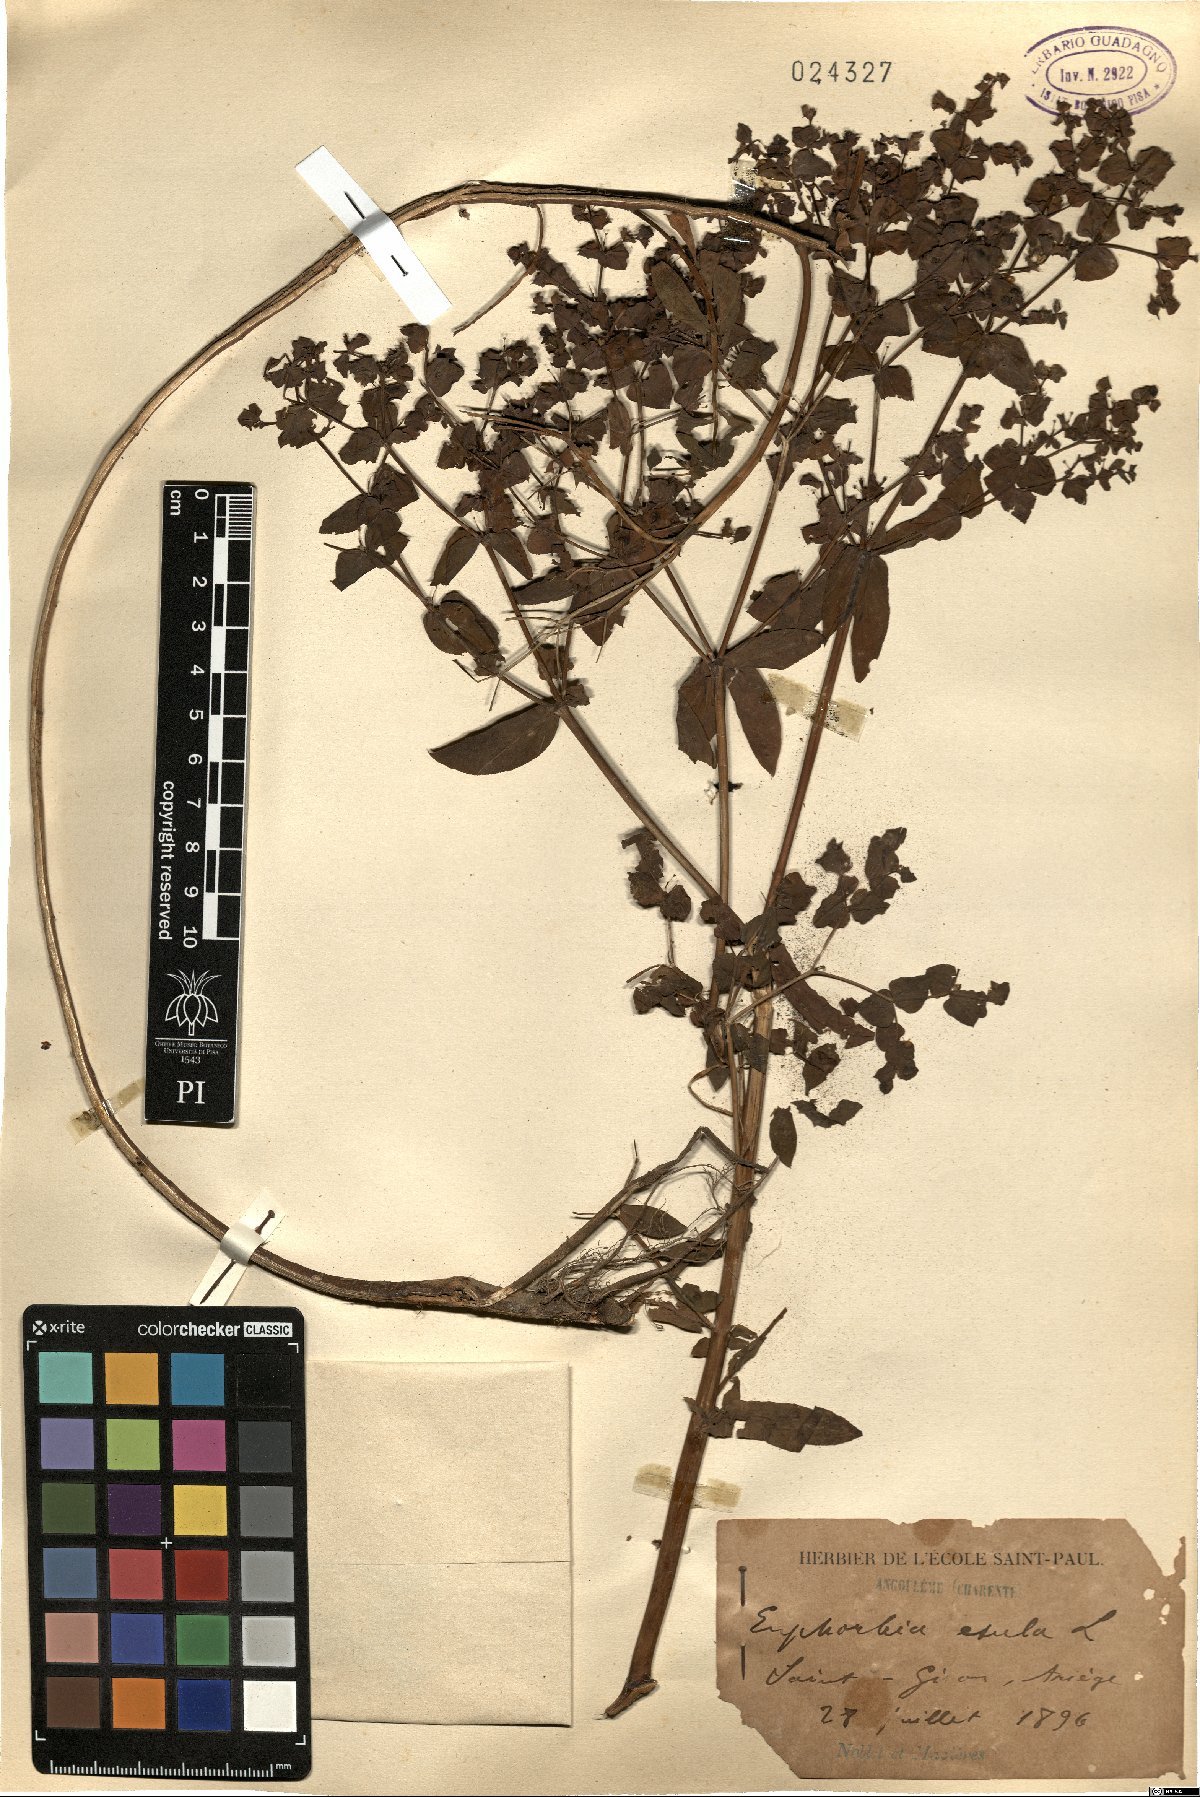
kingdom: Plantae
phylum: Tracheophyta
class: Magnoliopsida
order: Malpighiales
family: Euphorbiaceae
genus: Euphorbia
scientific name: Euphorbia esula
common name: Leafy spurge
